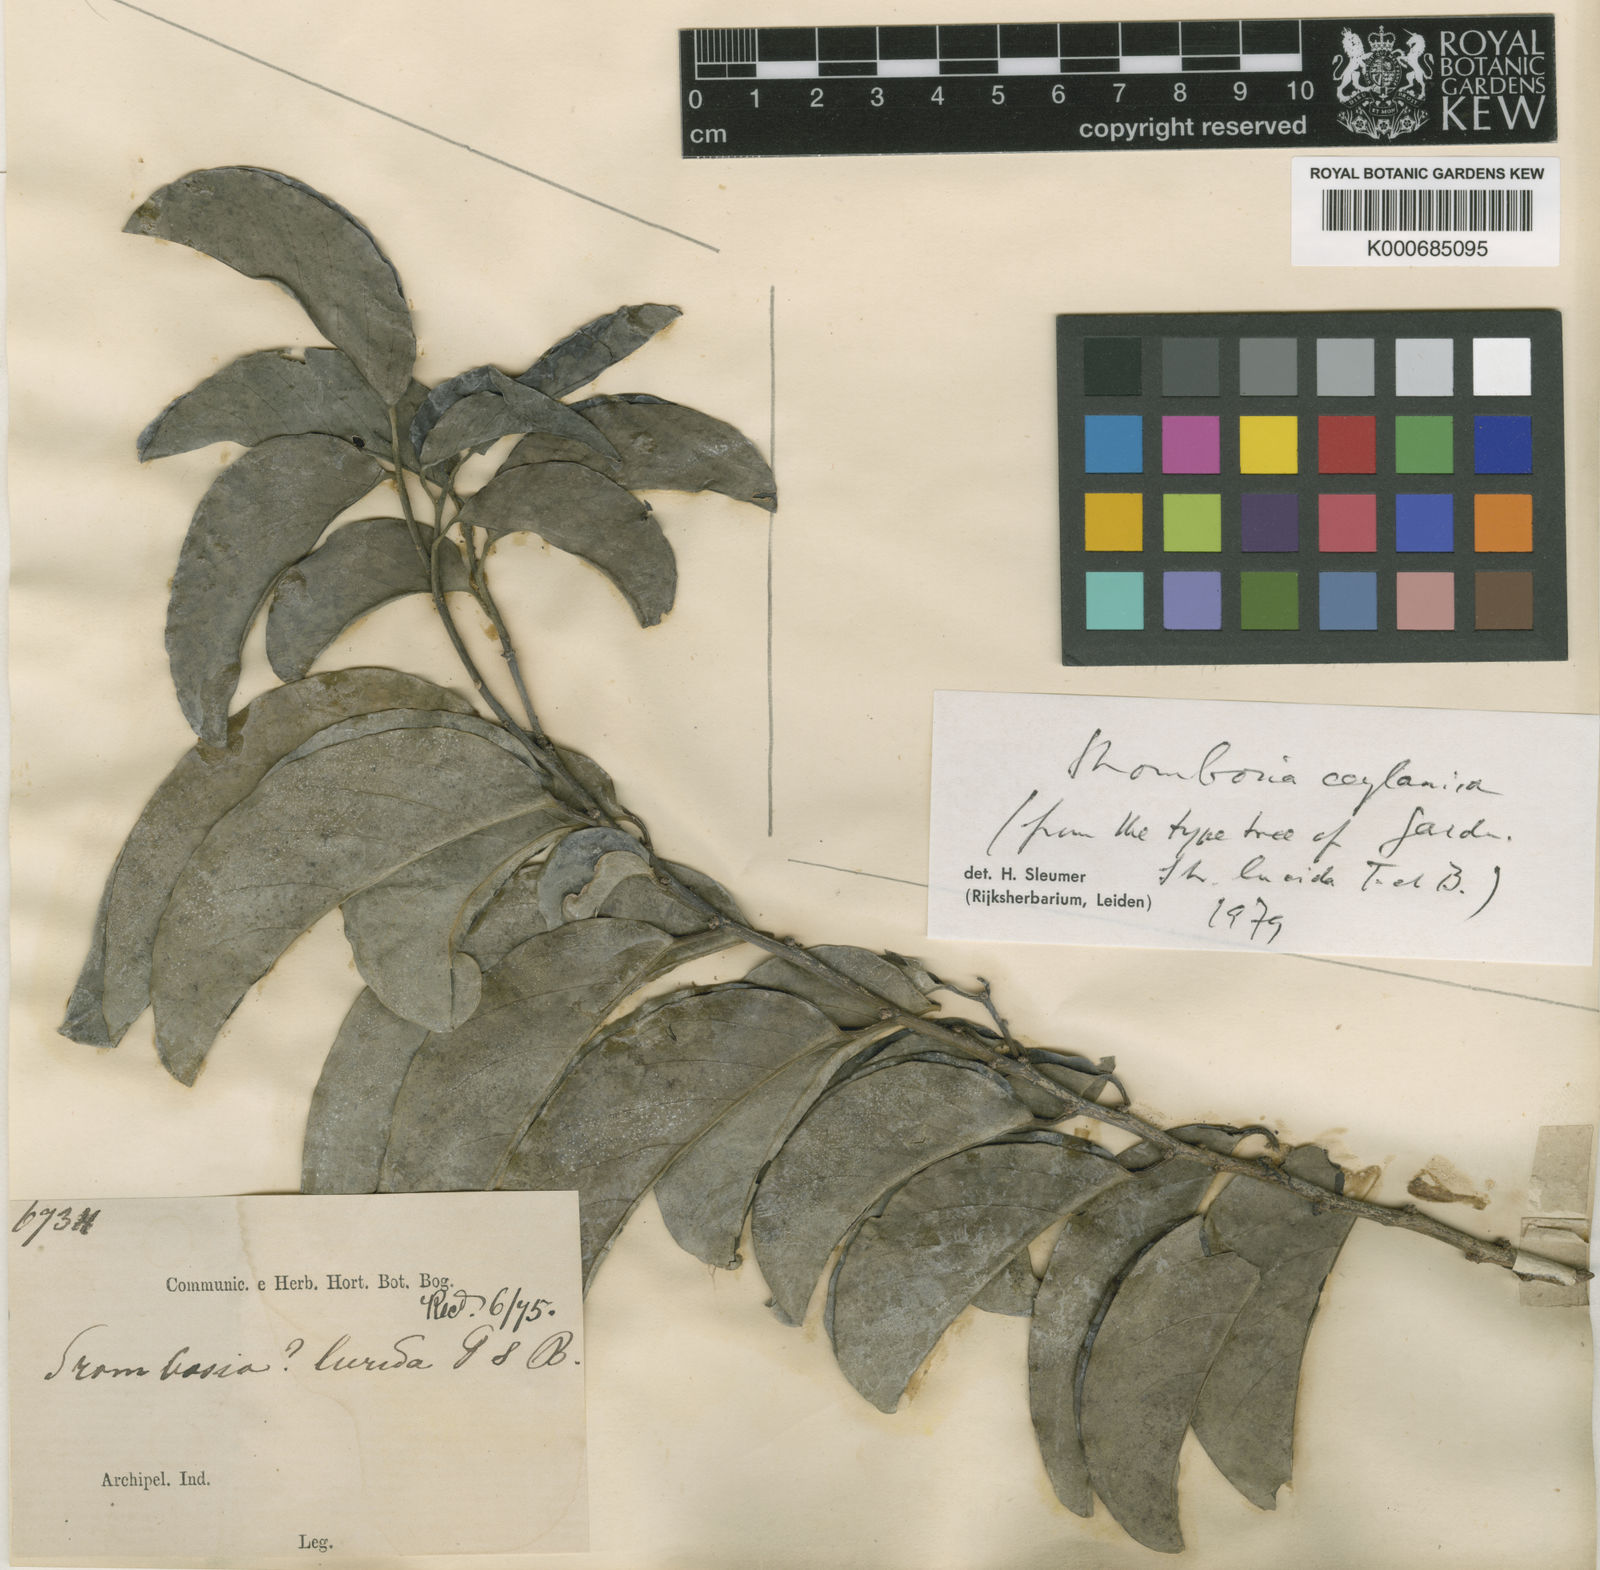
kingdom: Plantae
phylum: Tracheophyta
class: Magnoliopsida
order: Santalales
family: Strombosiaceae
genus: Strombosia
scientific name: Strombosia ceylanica
